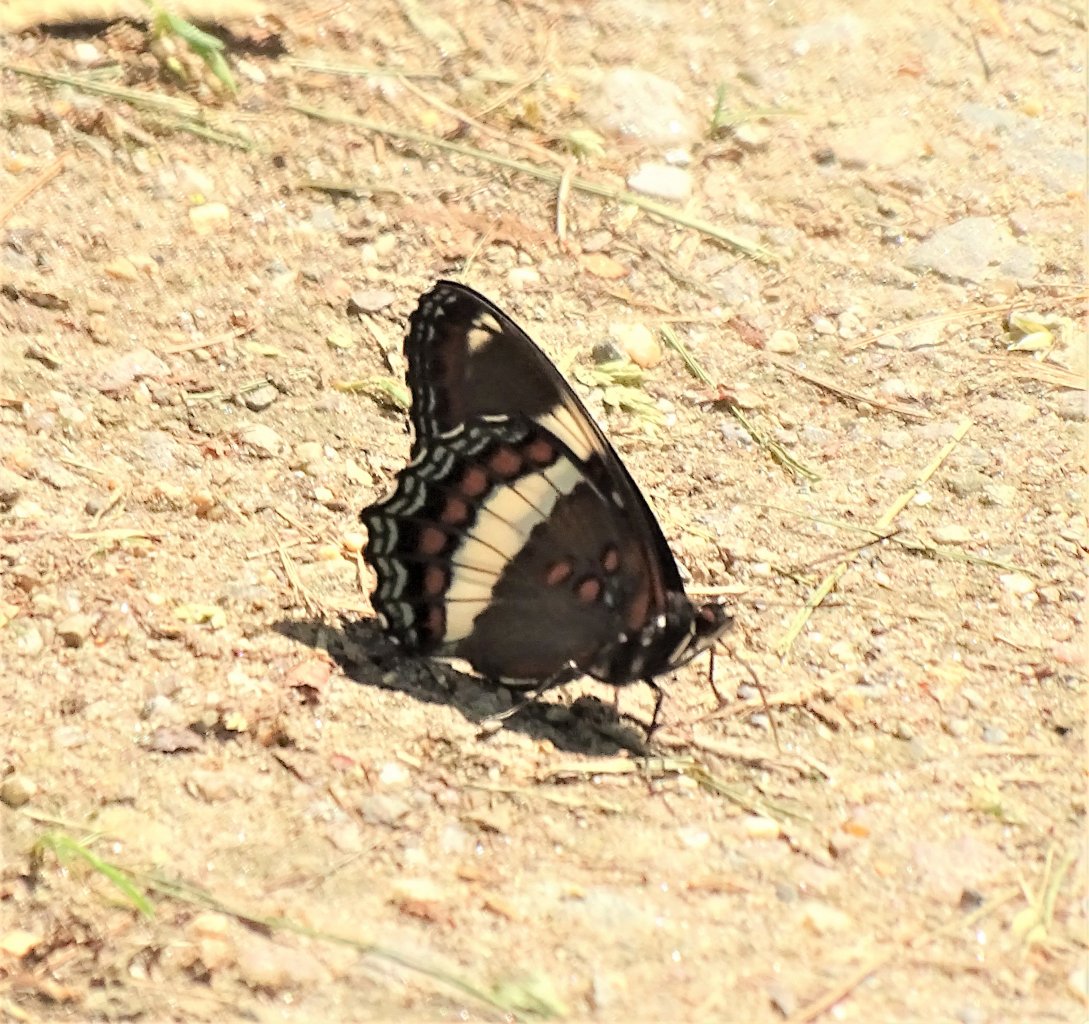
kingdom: Animalia
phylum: Arthropoda
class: Insecta
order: Lepidoptera
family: Nymphalidae
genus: Limenitis
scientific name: Limenitis arthemis
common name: Red-spotted Admiral
